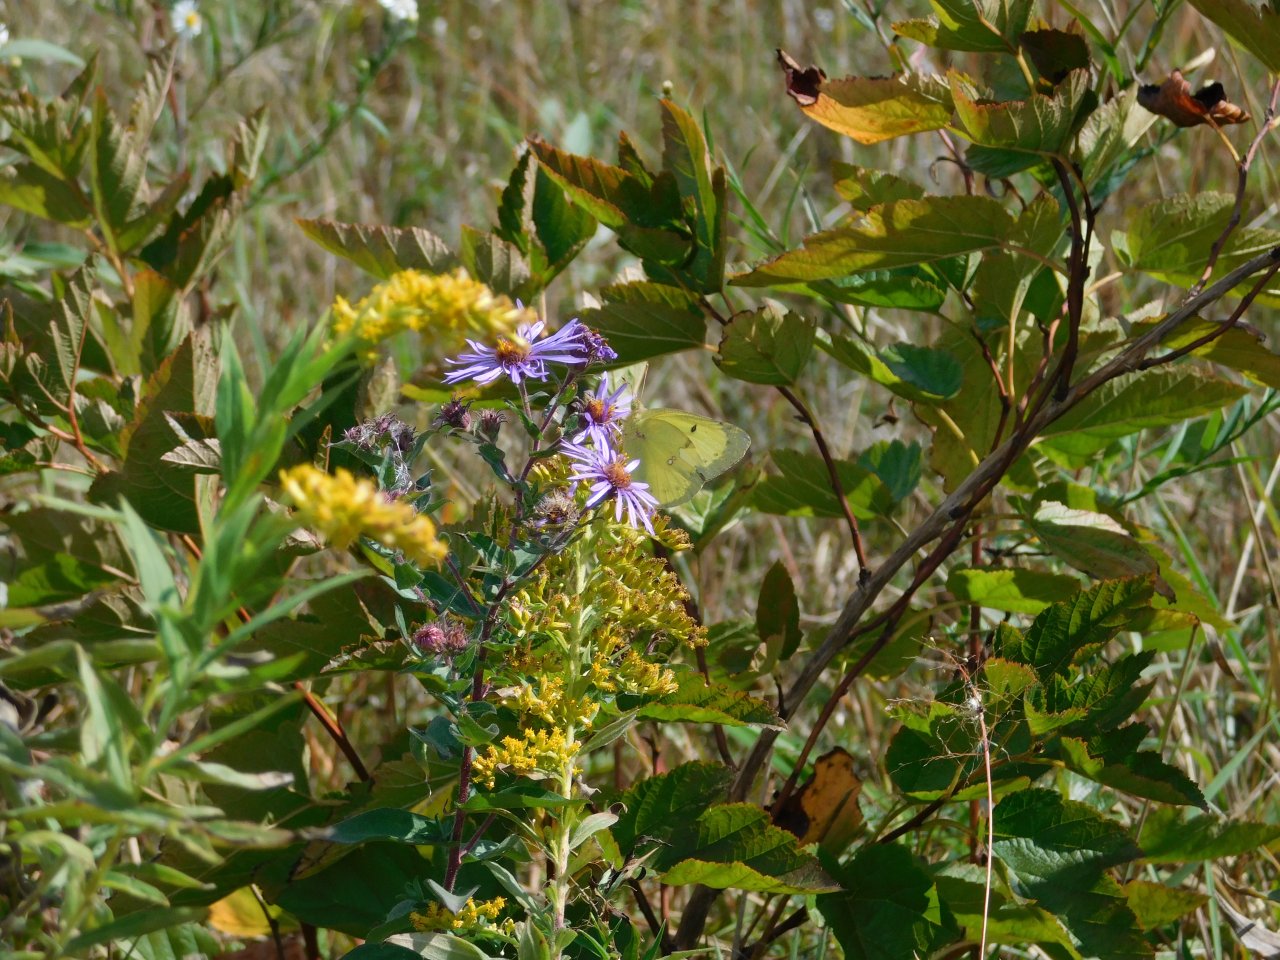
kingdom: Animalia
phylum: Arthropoda
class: Insecta
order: Lepidoptera
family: Pieridae
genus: Colias
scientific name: Colias philodice
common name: Clouded Sulphur
